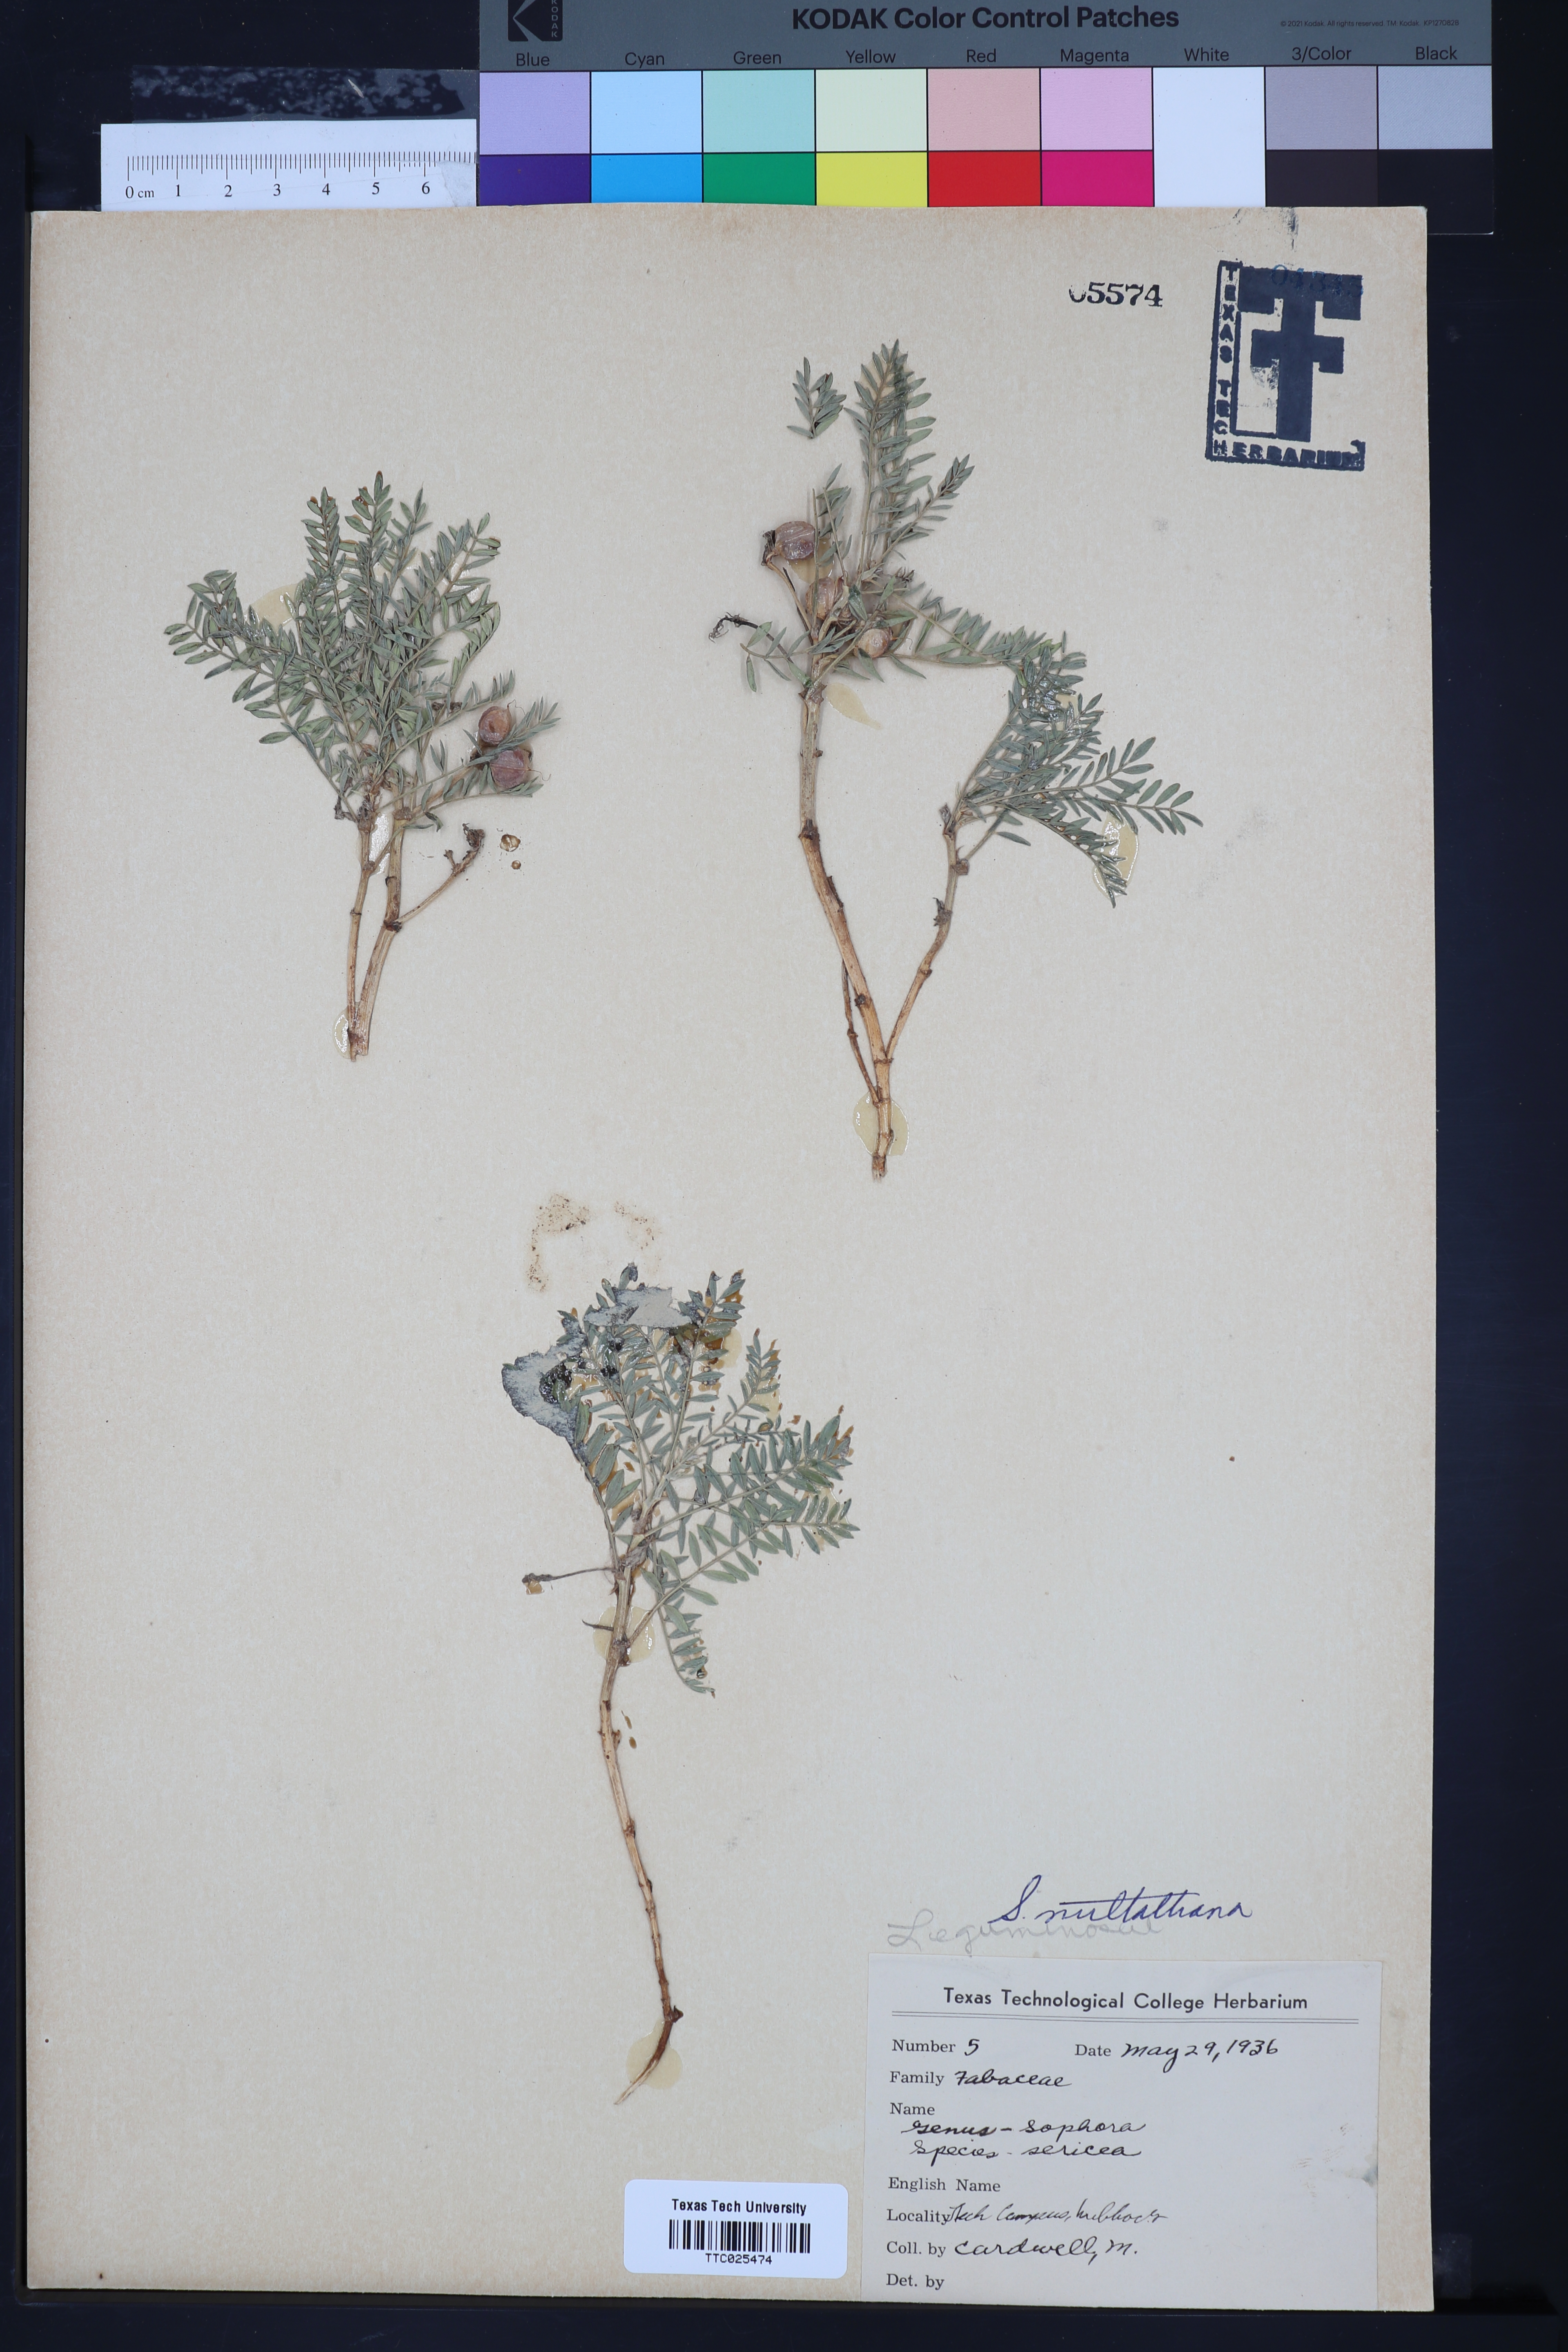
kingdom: Plantae
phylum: Tracheophyta
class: Magnoliopsida
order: Fabales
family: Fabaceae
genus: Sophora
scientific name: Sophora nuttalliana
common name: Silky sophora
